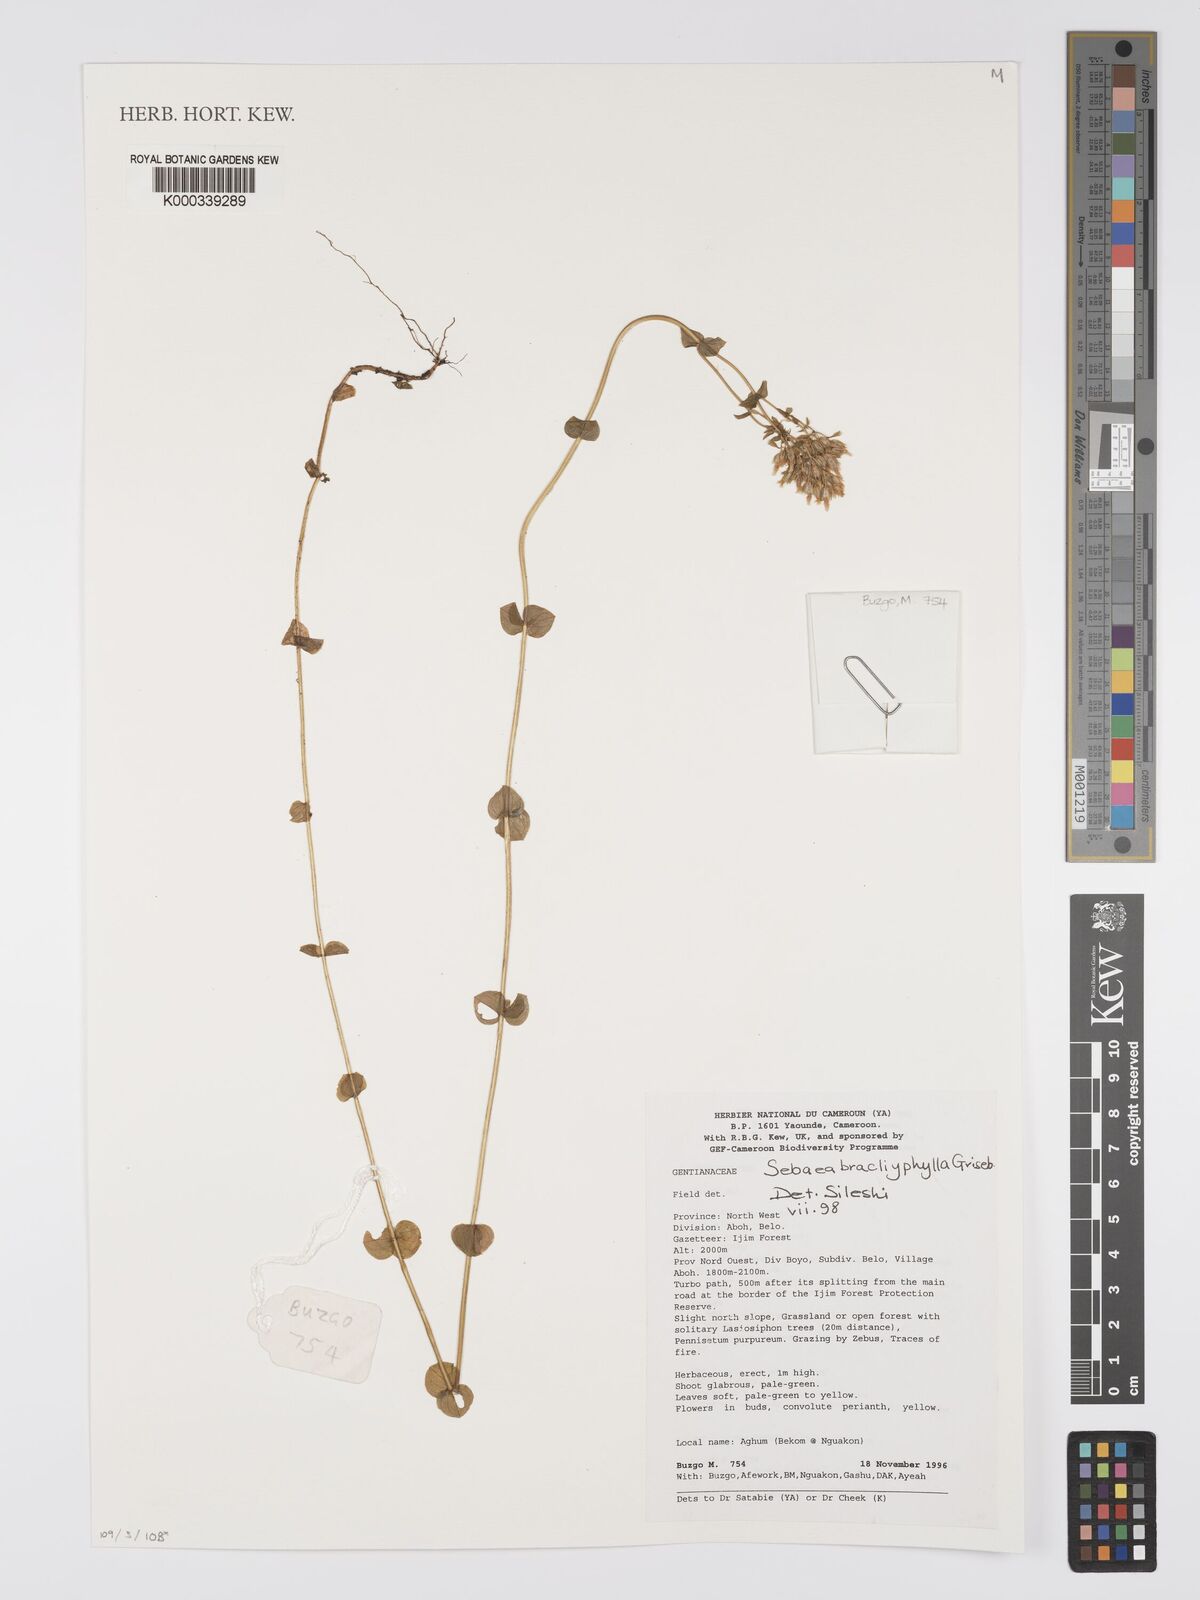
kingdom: Plantae
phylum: Tracheophyta
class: Magnoliopsida
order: Gentianales
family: Gentianaceae
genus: Sebaea
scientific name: Sebaea brachyphylla
